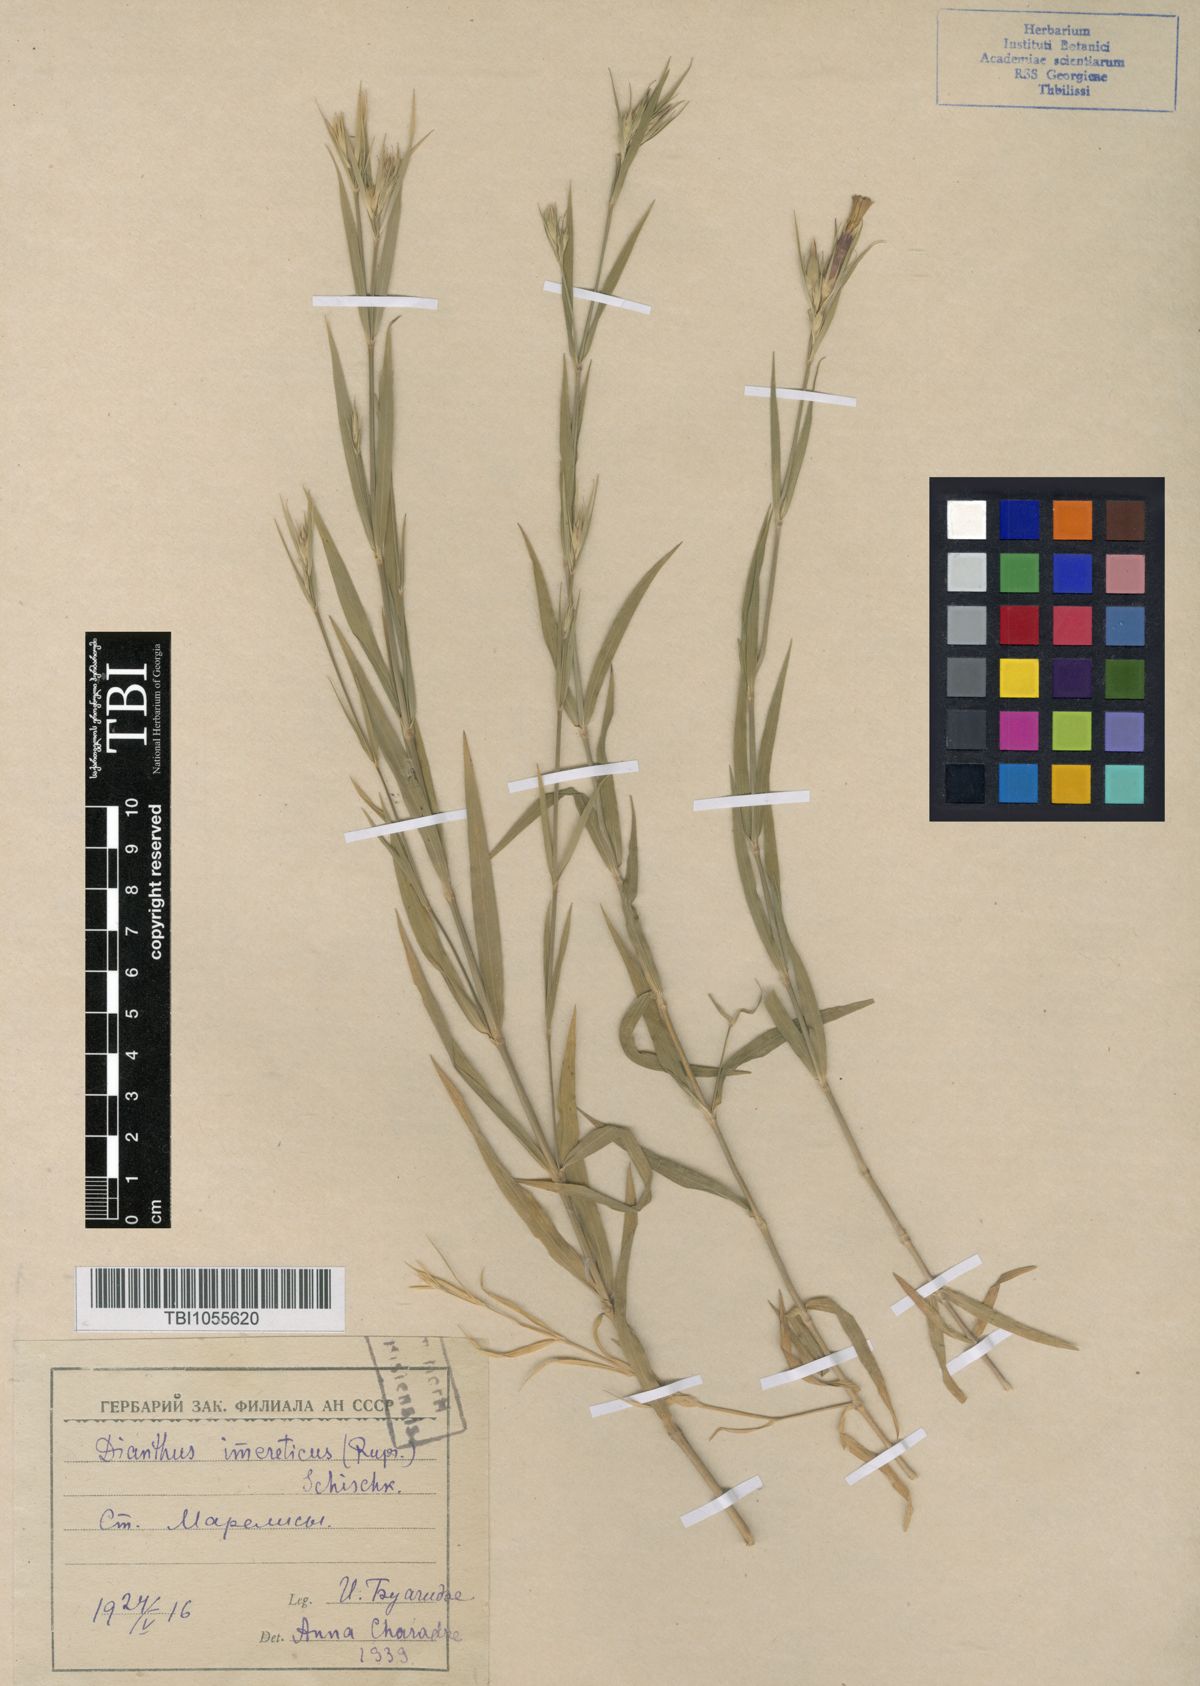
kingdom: Plantae
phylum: Tracheophyta
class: Magnoliopsida
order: Caryophyllales
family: Caryophyllaceae
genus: Dianthus
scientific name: Dianthus imereticus
